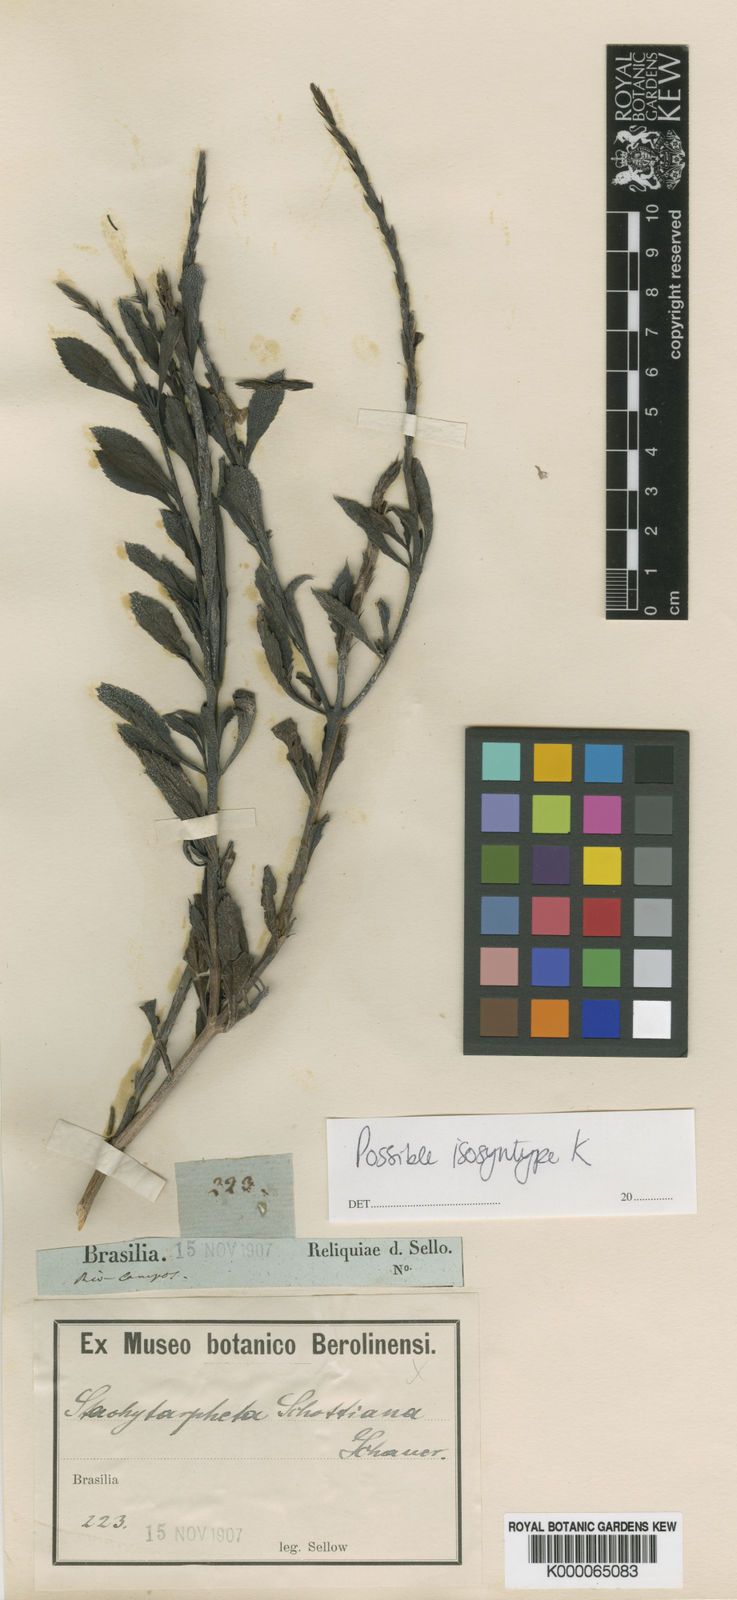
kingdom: Plantae
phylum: Tracheophyta
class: Magnoliopsida
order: Lamiales
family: Verbenaceae
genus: Stachytarpheta
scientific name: Stachytarpheta schottiana
